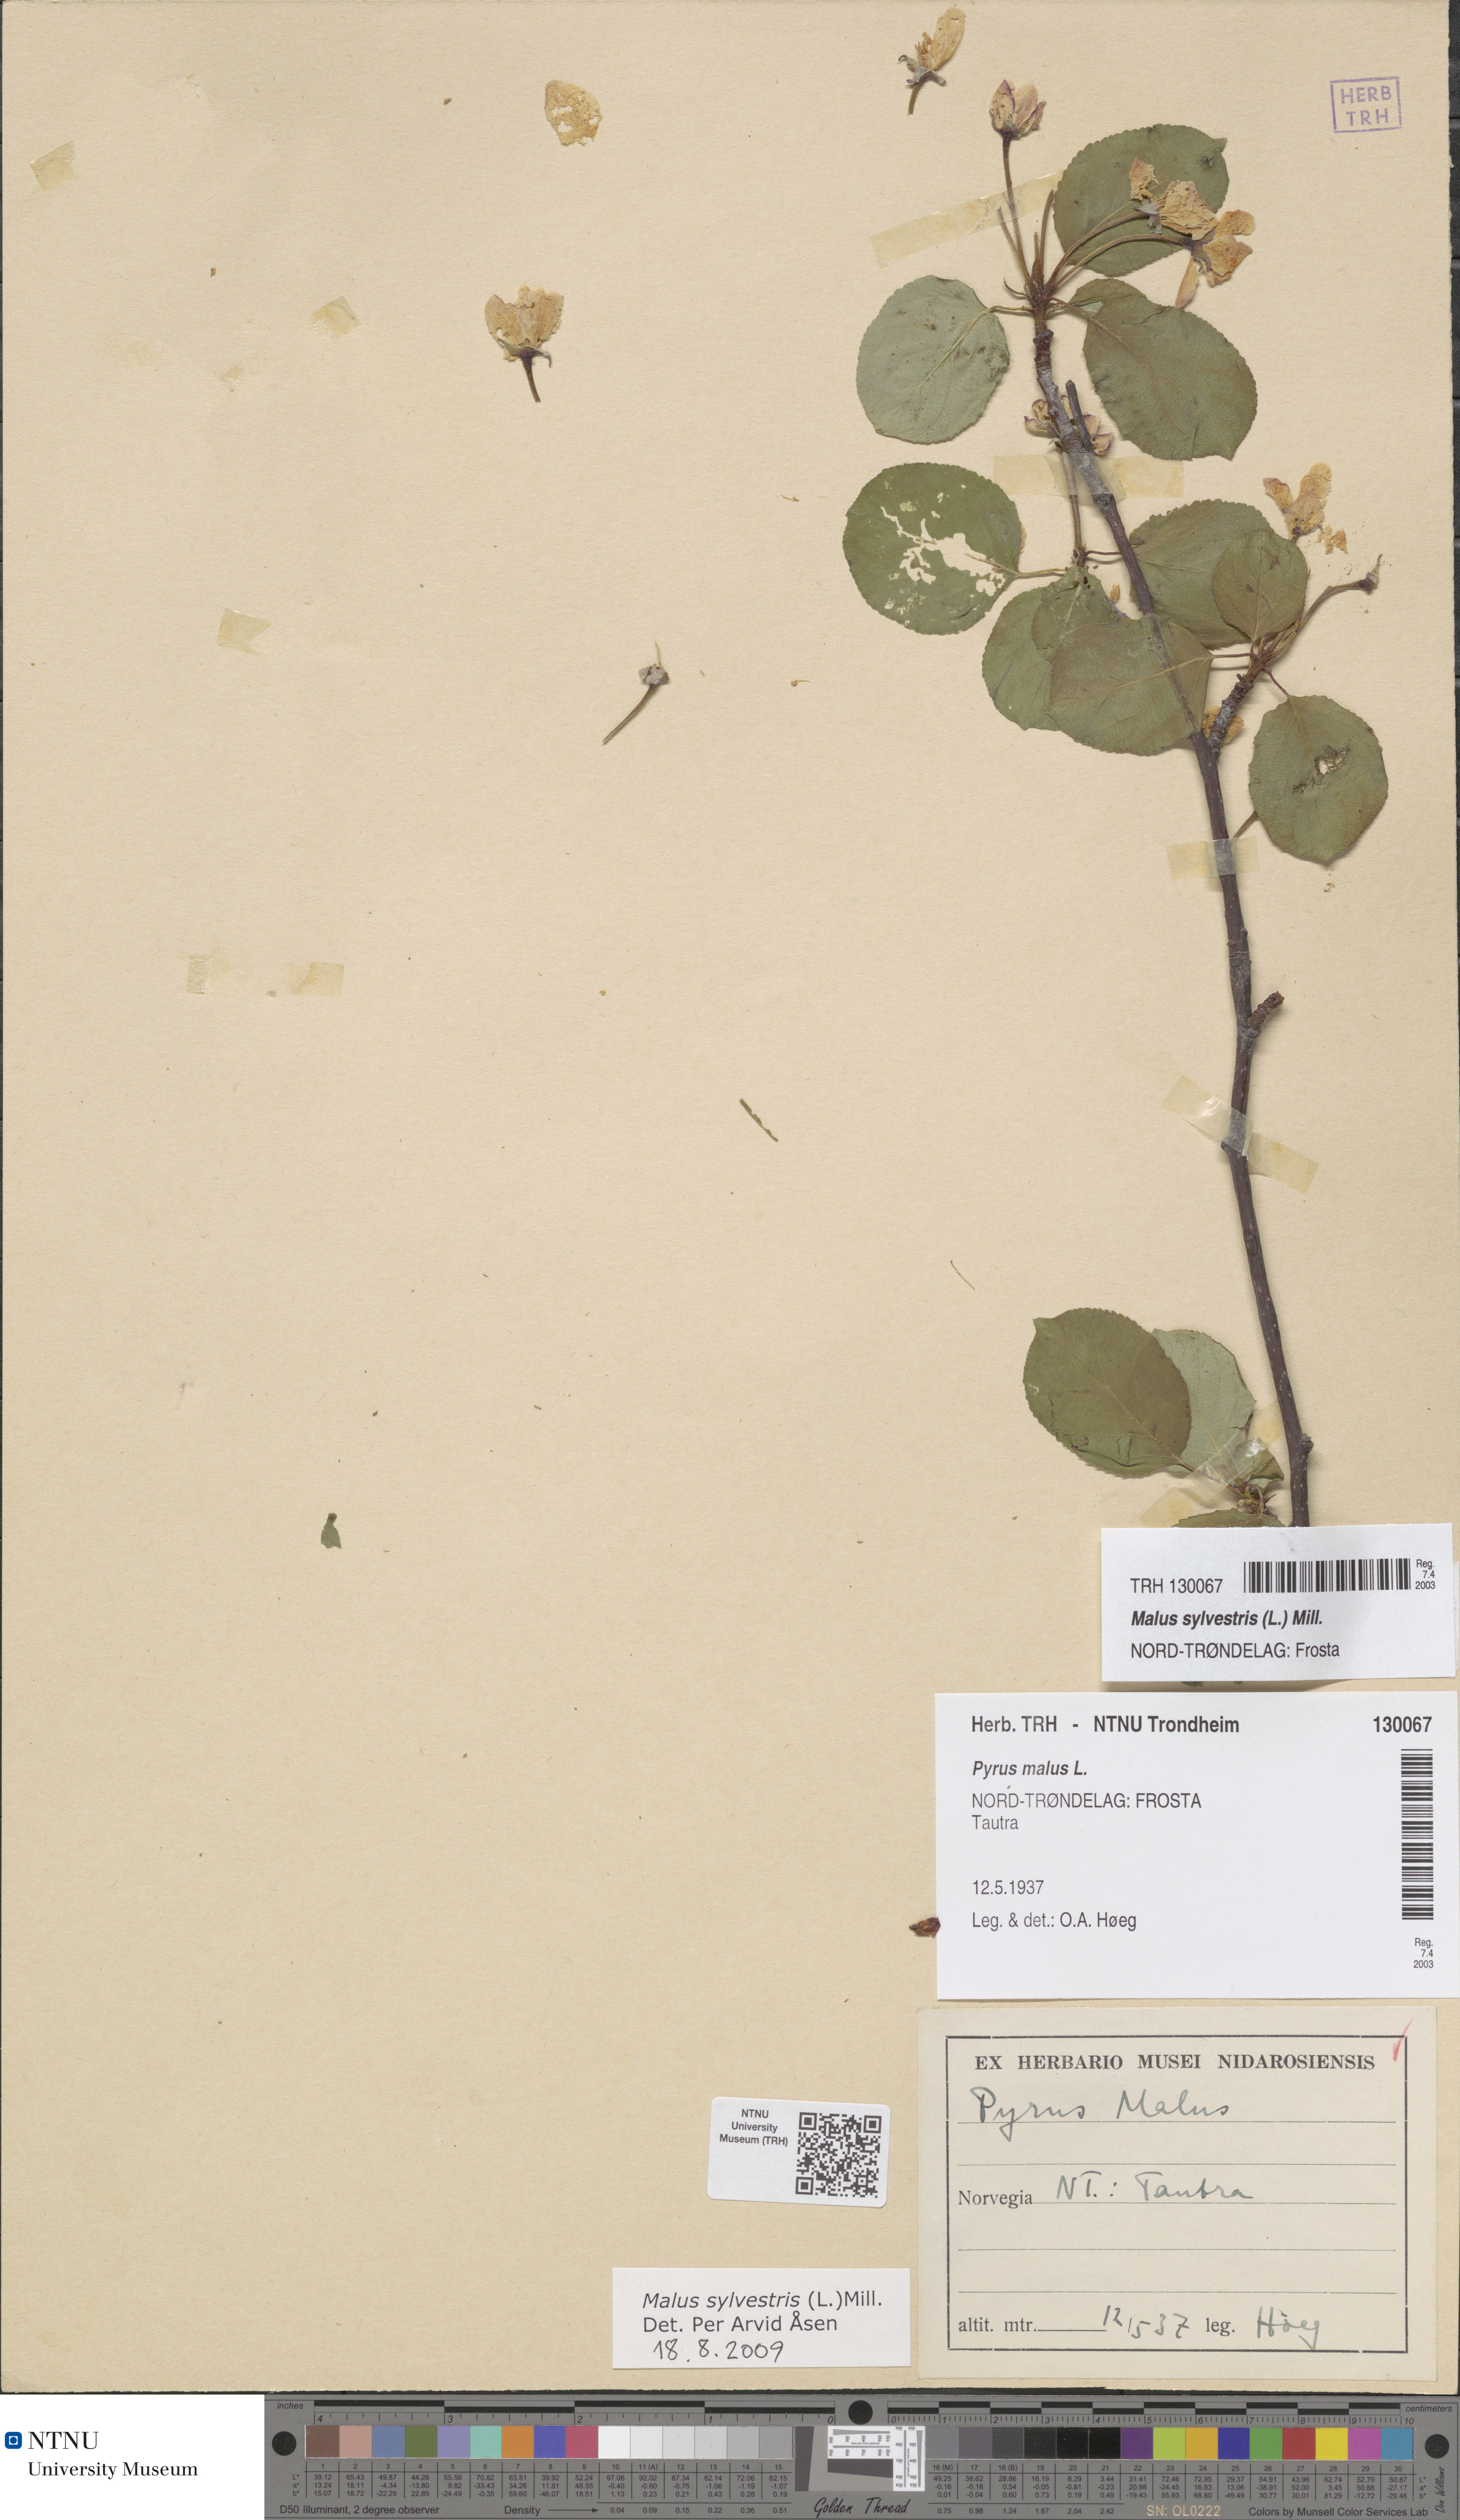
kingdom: Plantae
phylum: Tracheophyta
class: Magnoliopsida
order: Rosales
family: Rosaceae
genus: Malus
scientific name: Malus sylvestris
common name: Crab apple
